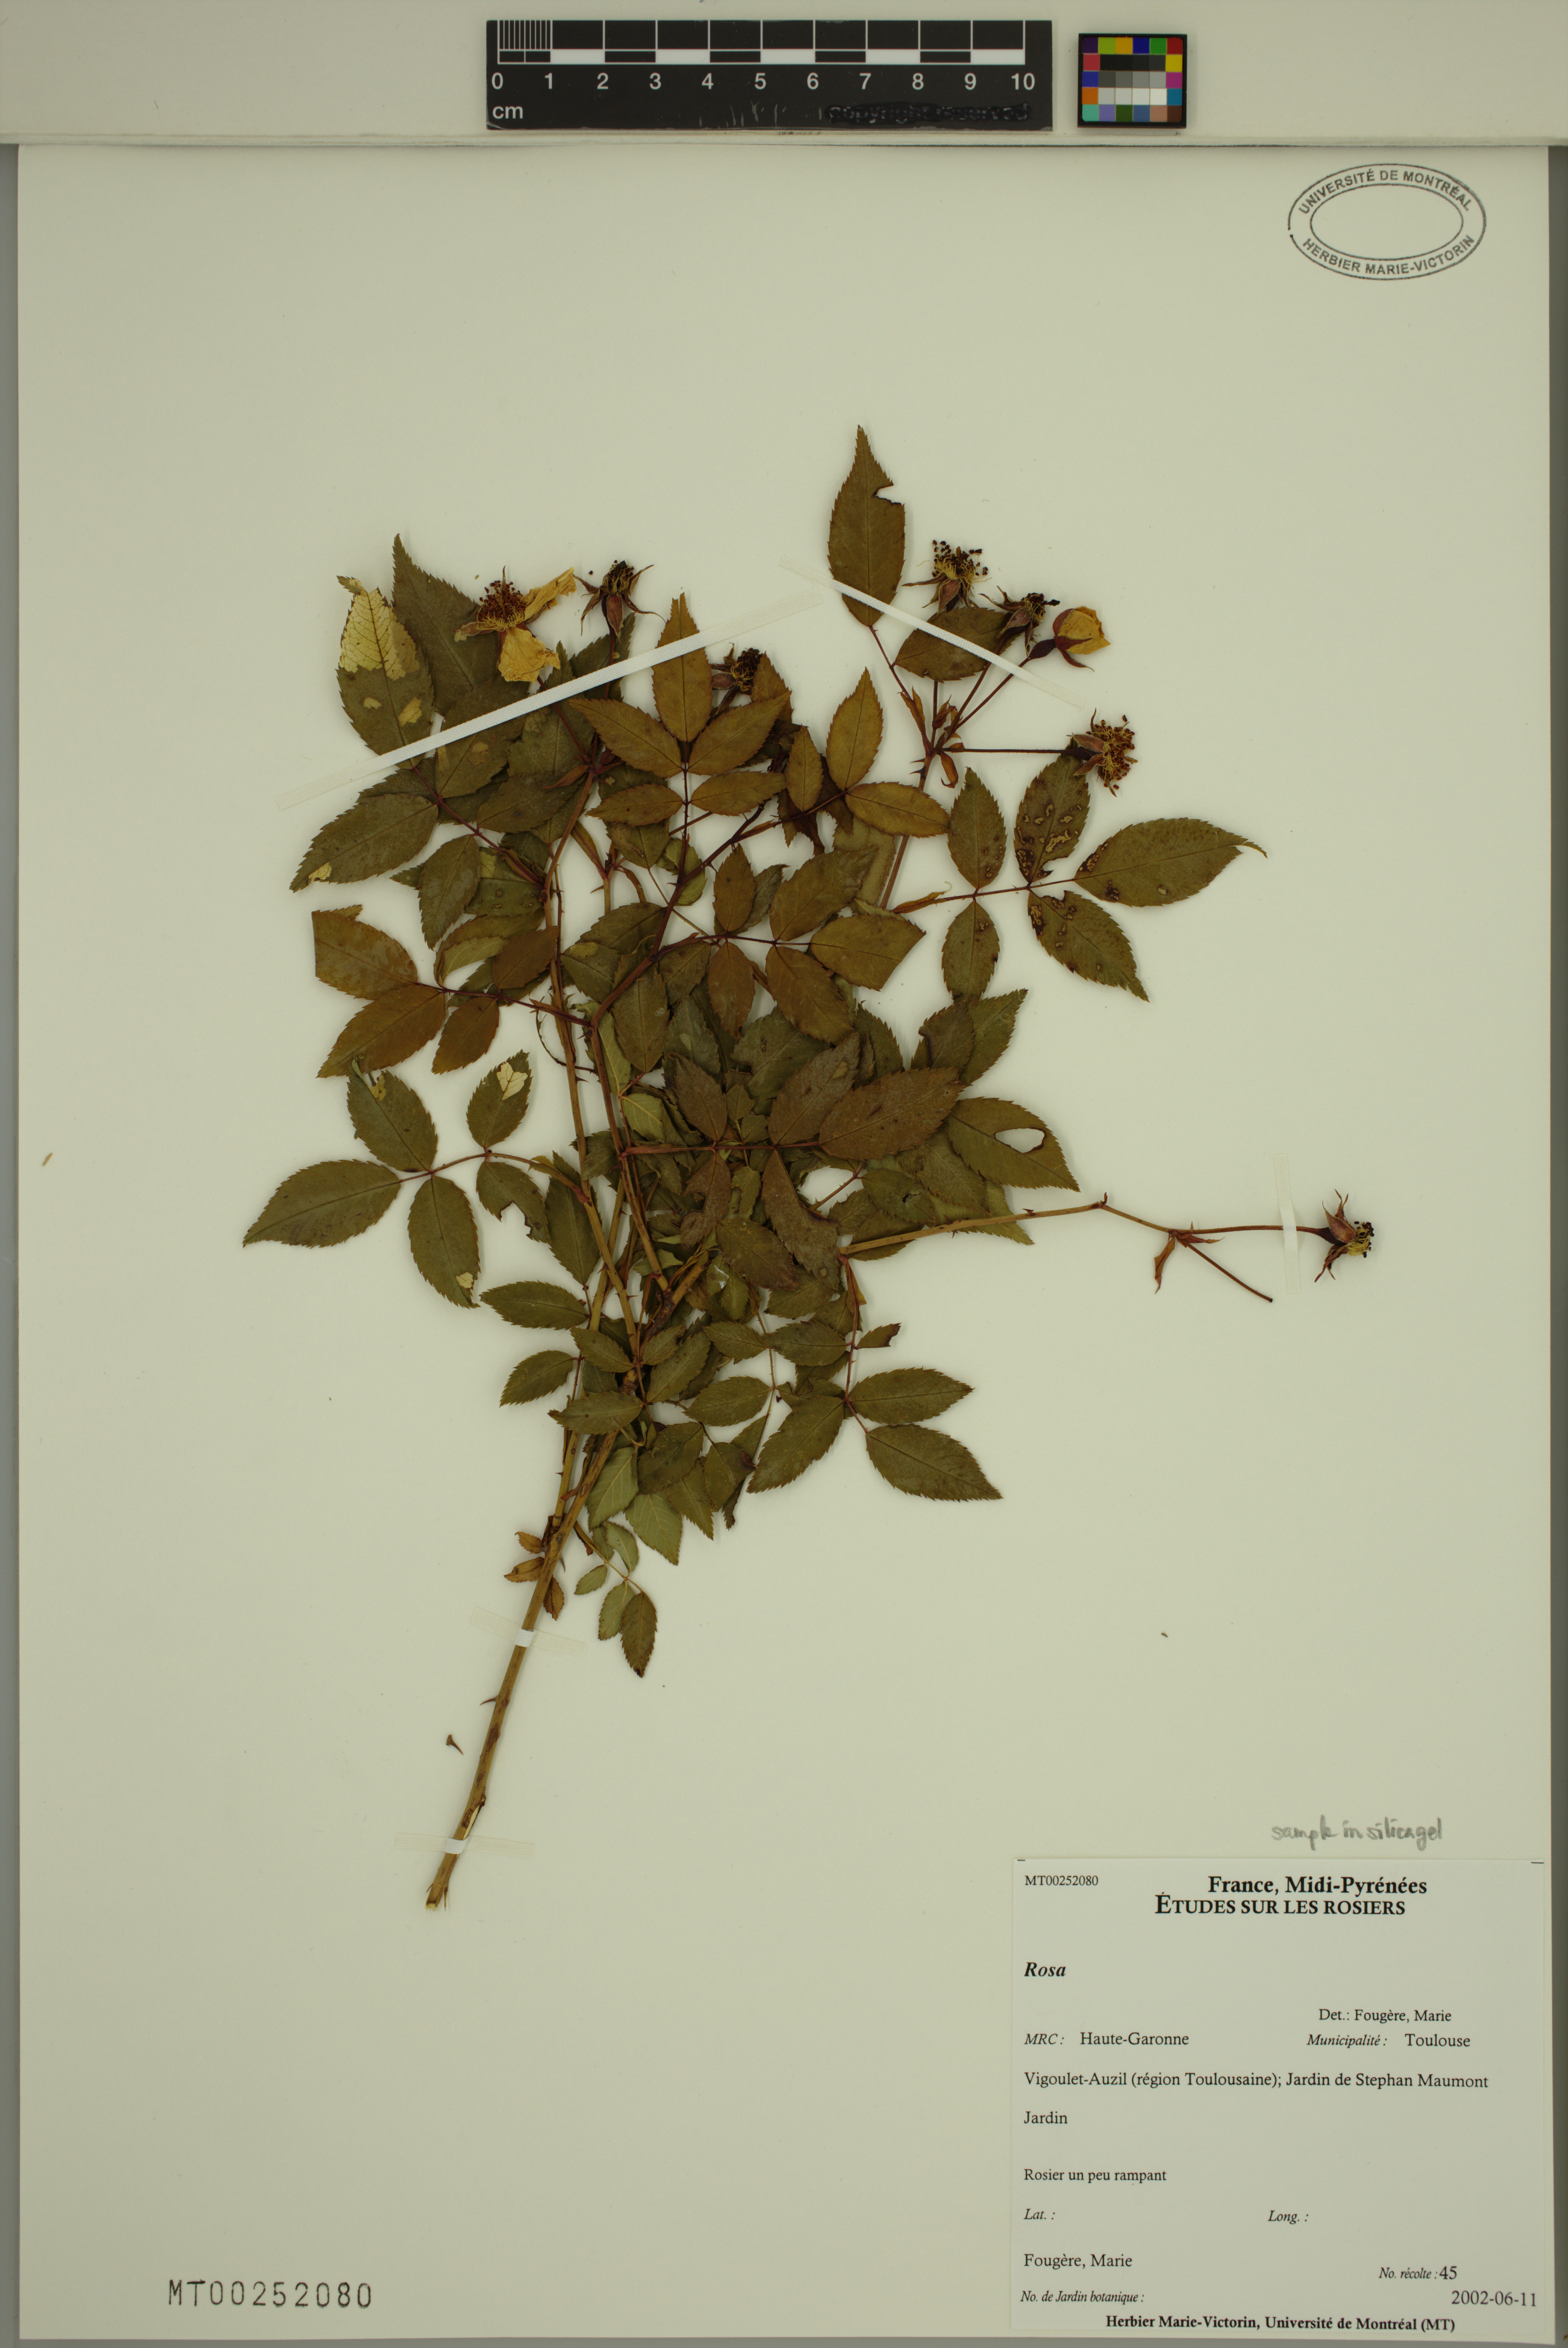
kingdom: Plantae
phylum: Tracheophyta
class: Magnoliopsida
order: Rosales
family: Rosaceae
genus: Rosa
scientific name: Rosa
